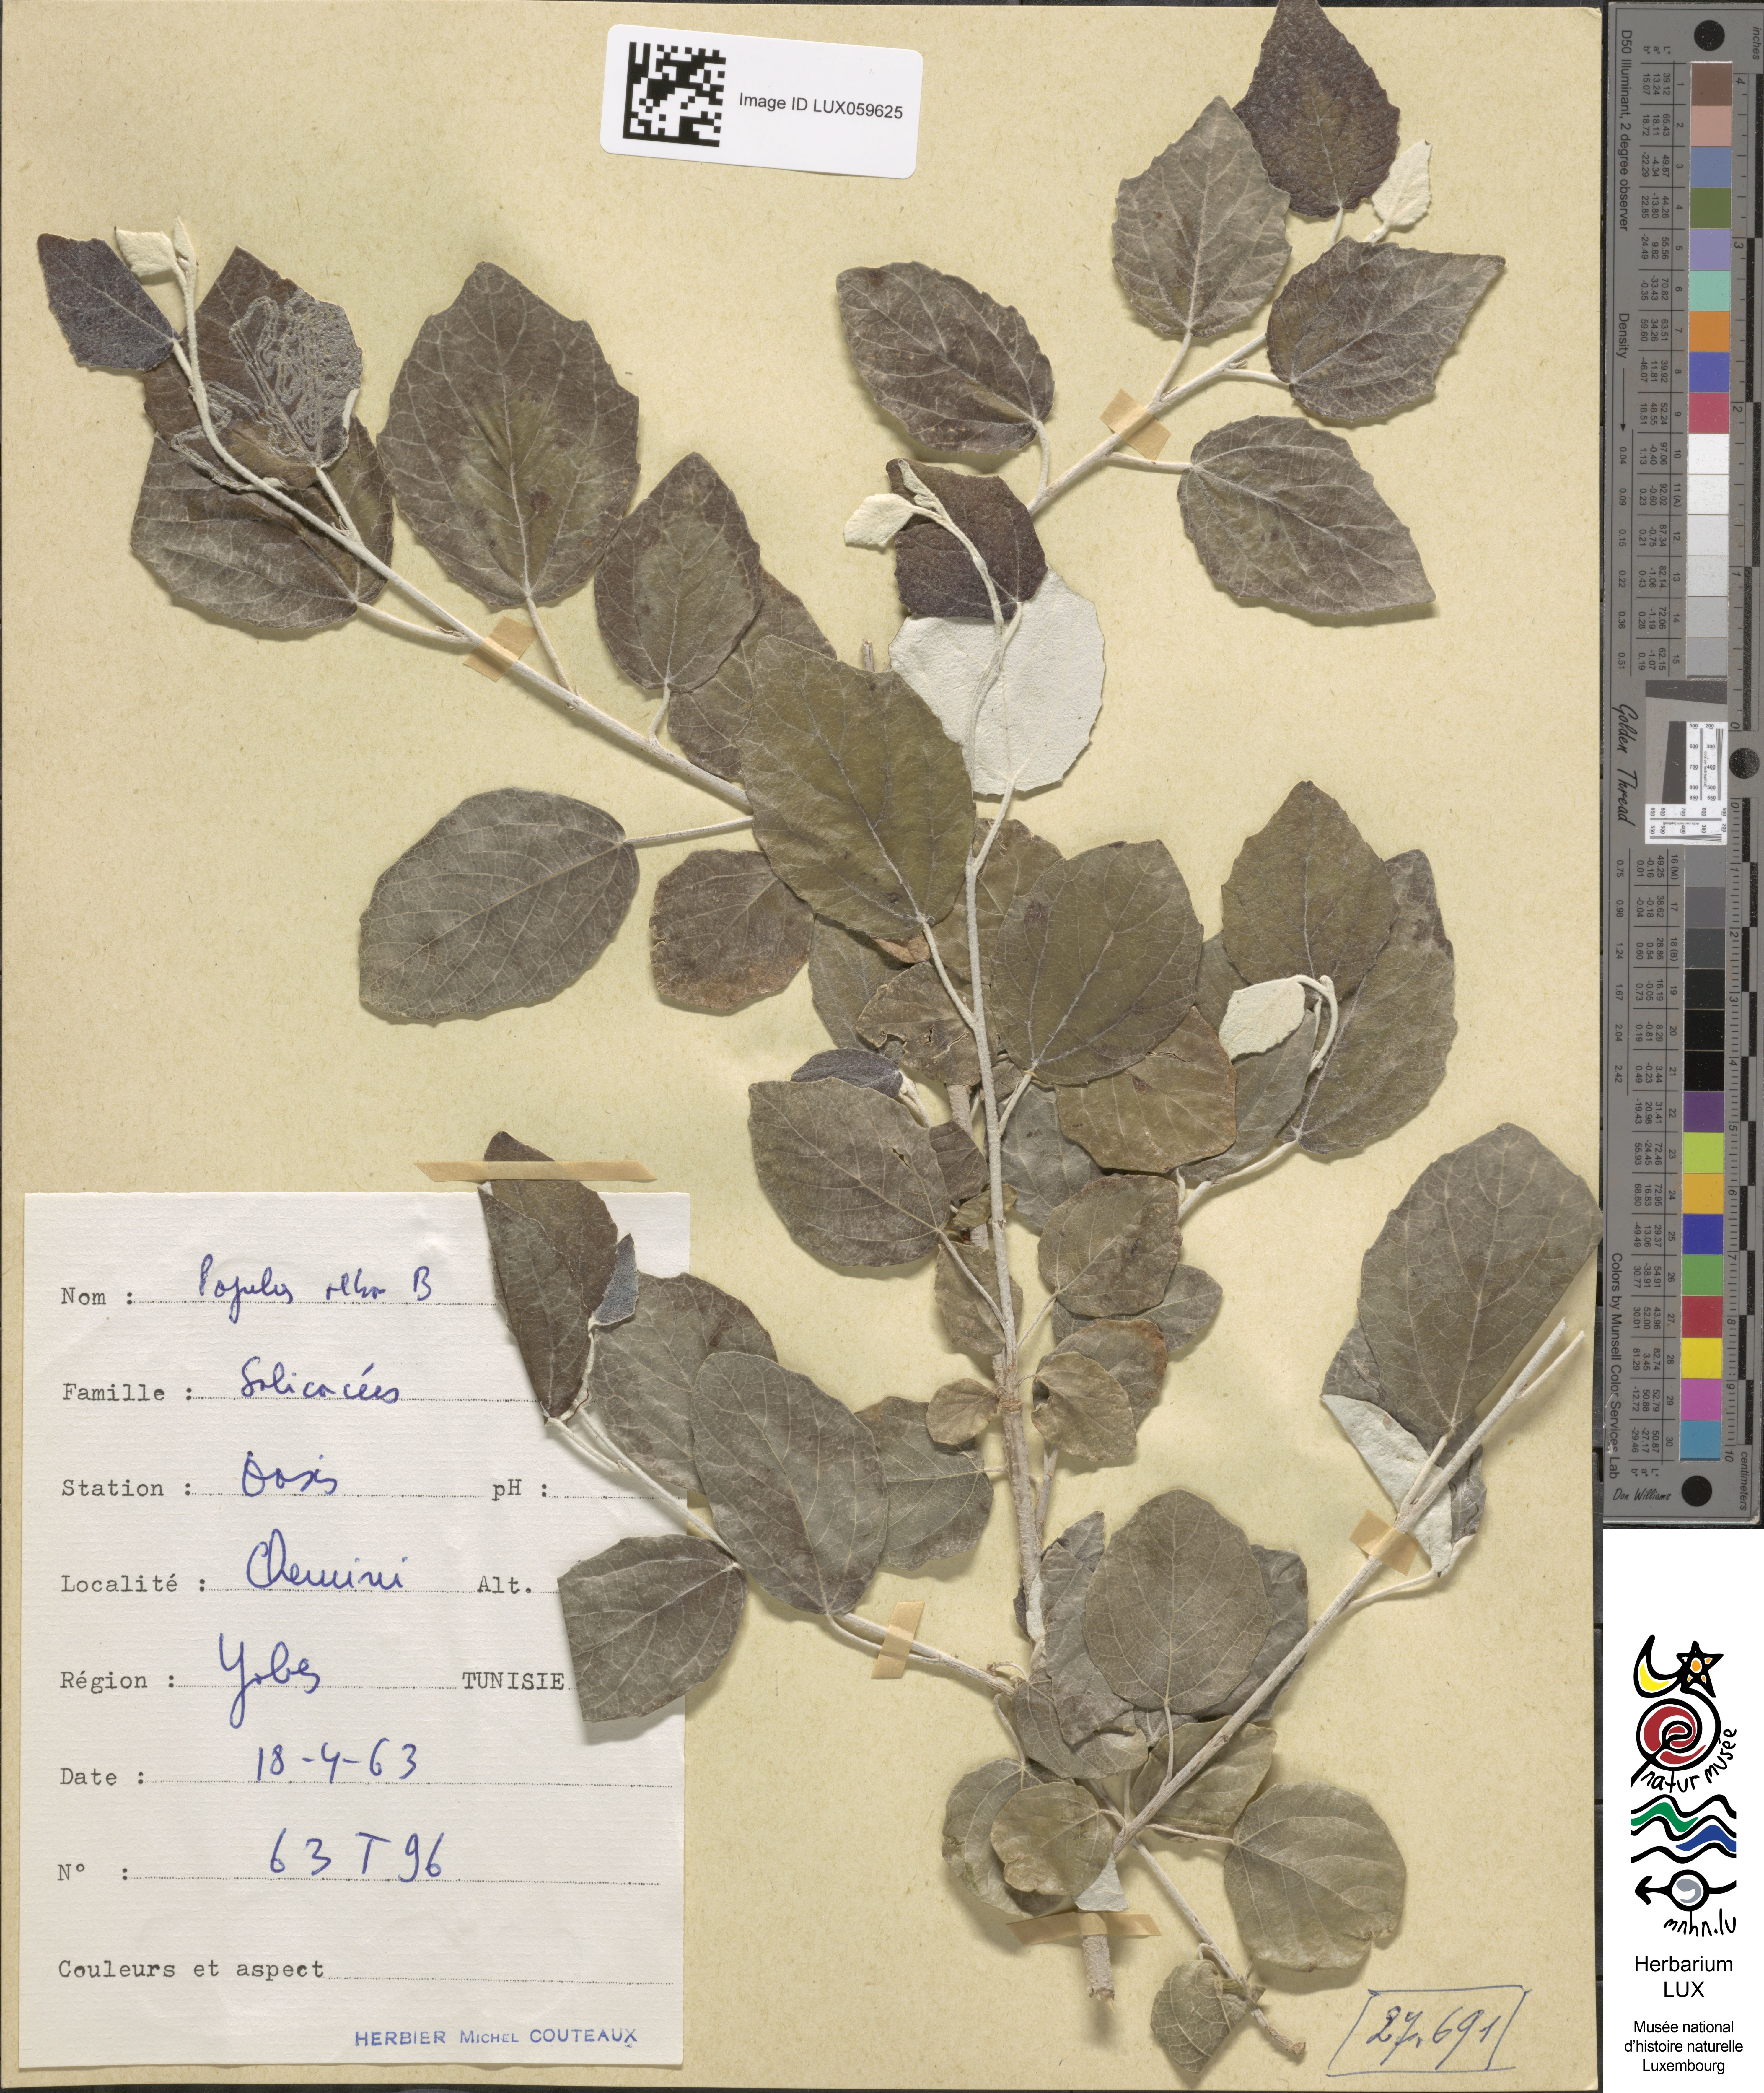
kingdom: Plantae
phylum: Tracheophyta
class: Magnoliopsida
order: Malpighiales
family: Salicaceae
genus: Populus
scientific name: Populus alba
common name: White poplar
